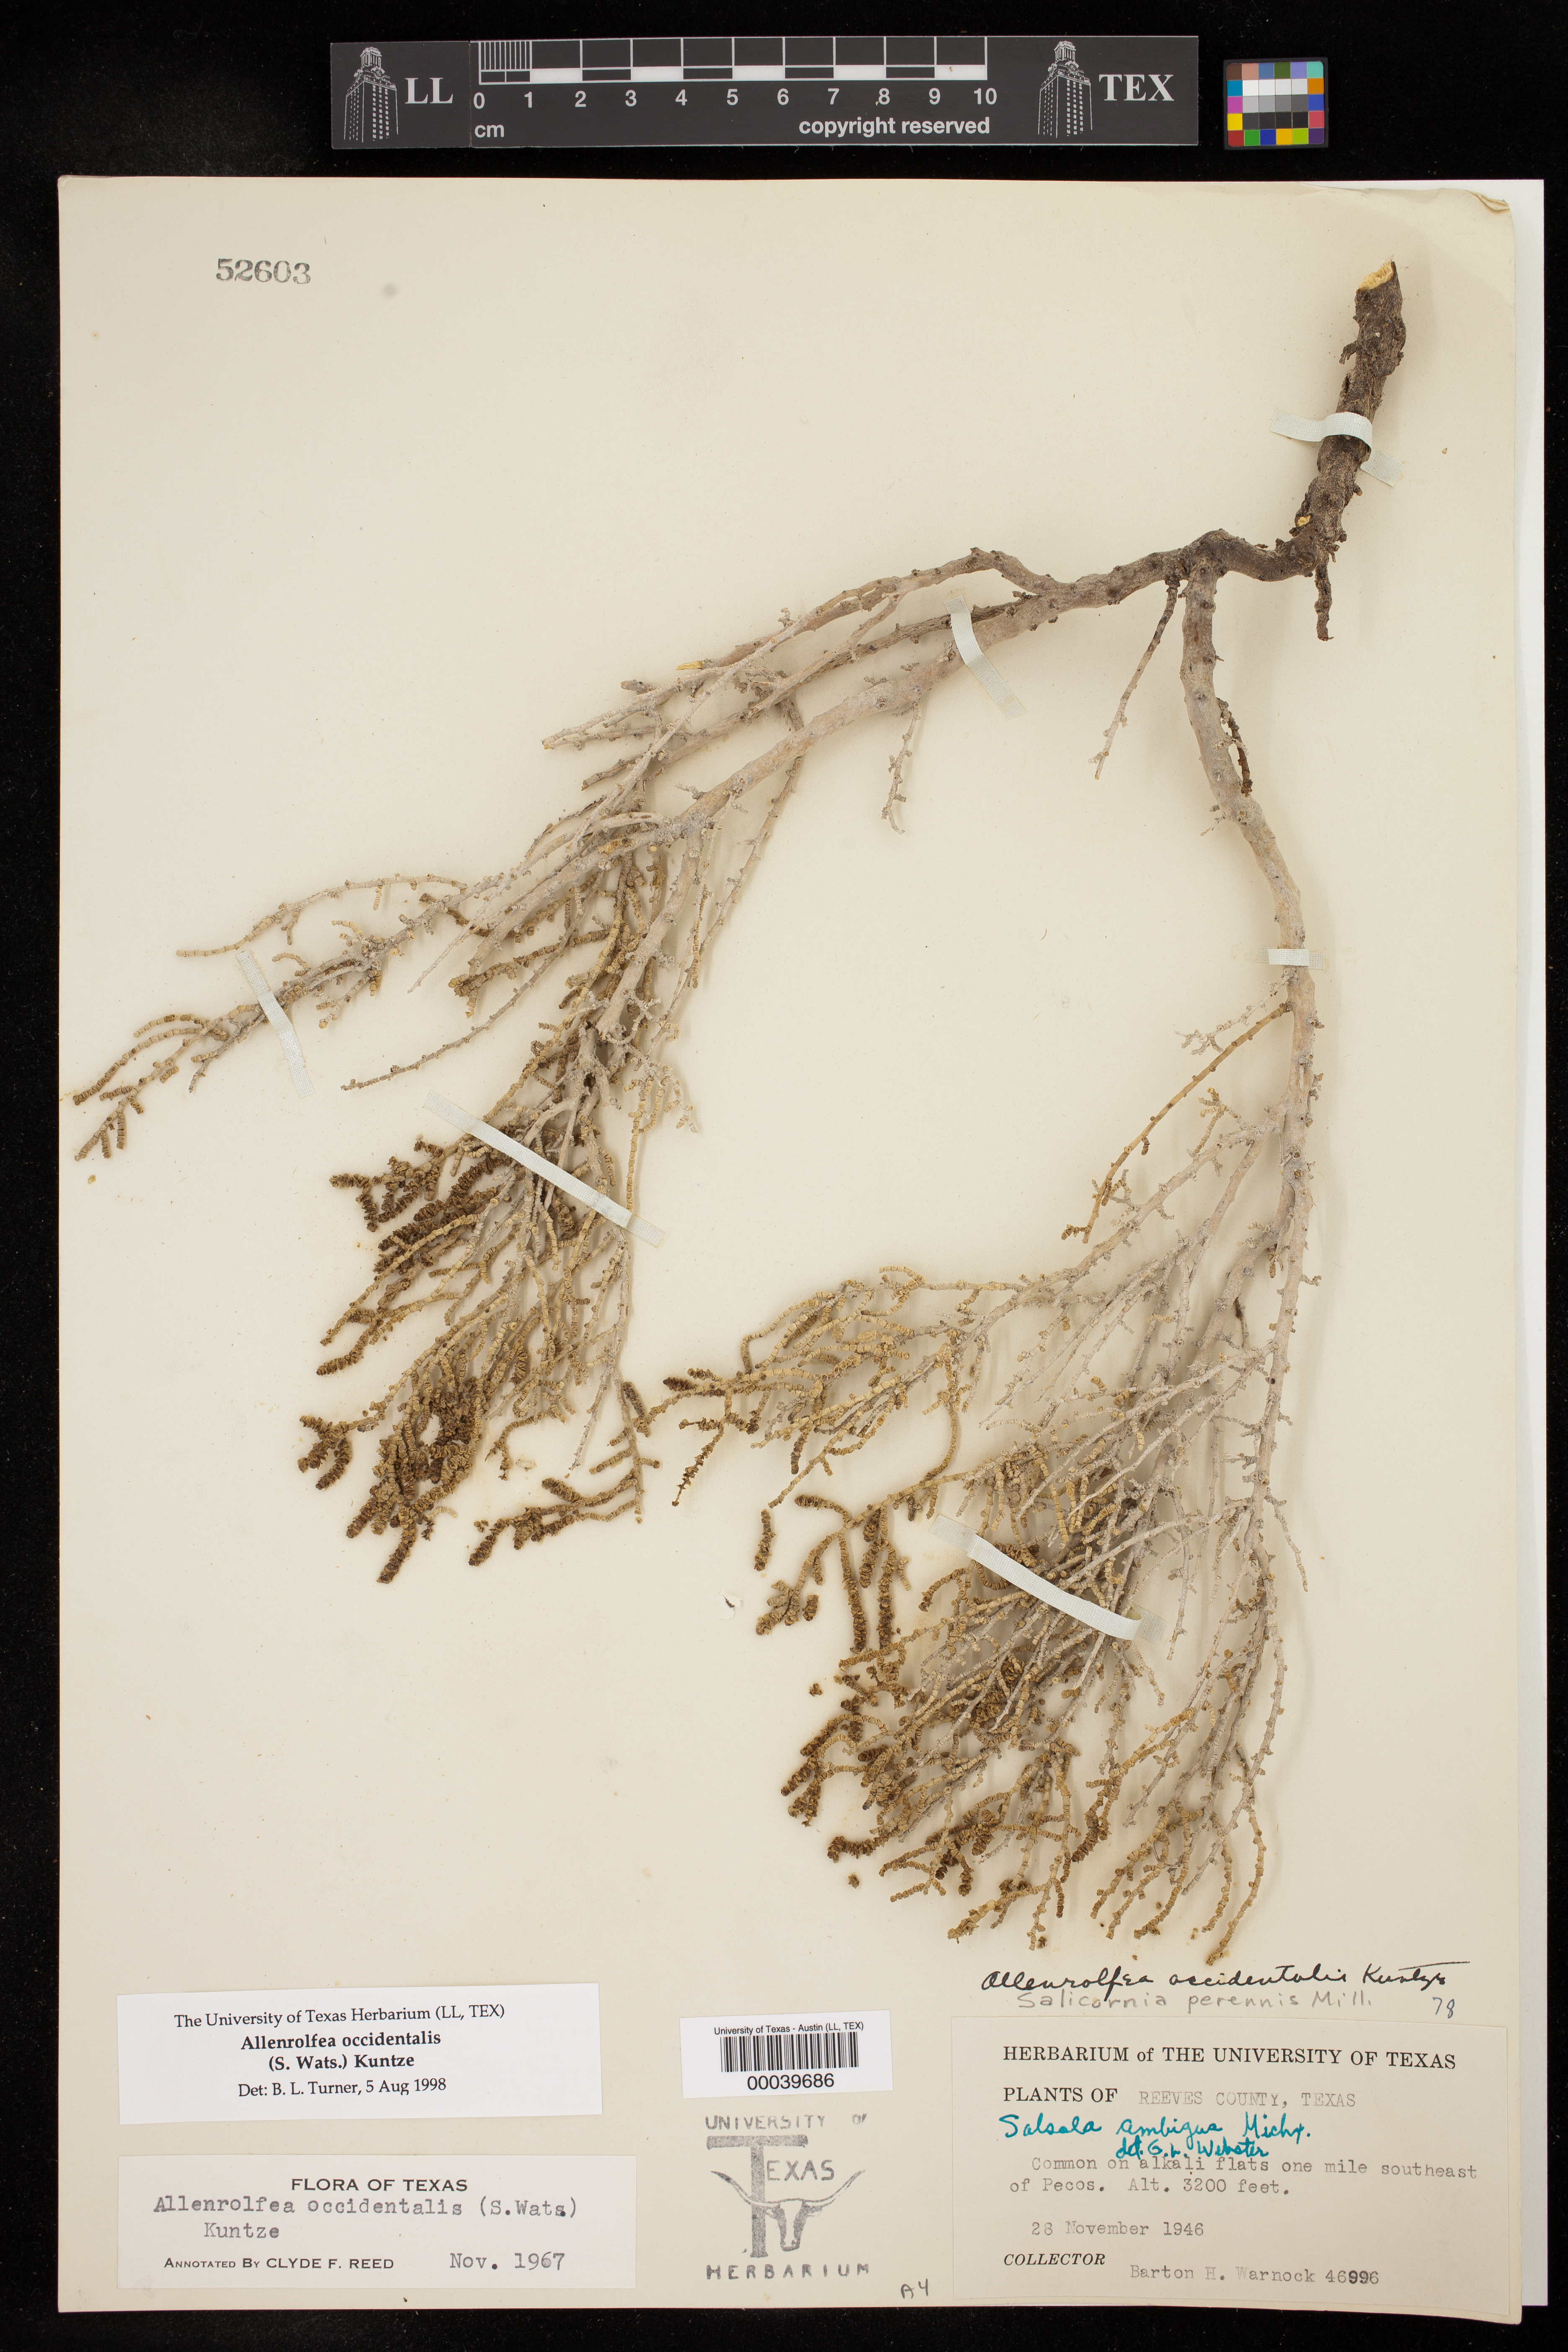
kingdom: Plantae
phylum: Tracheophyta
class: Magnoliopsida
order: Caryophyllales
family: Amaranthaceae
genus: Allenrolfea
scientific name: Allenrolfea occidentalis
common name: Iodine-bush
